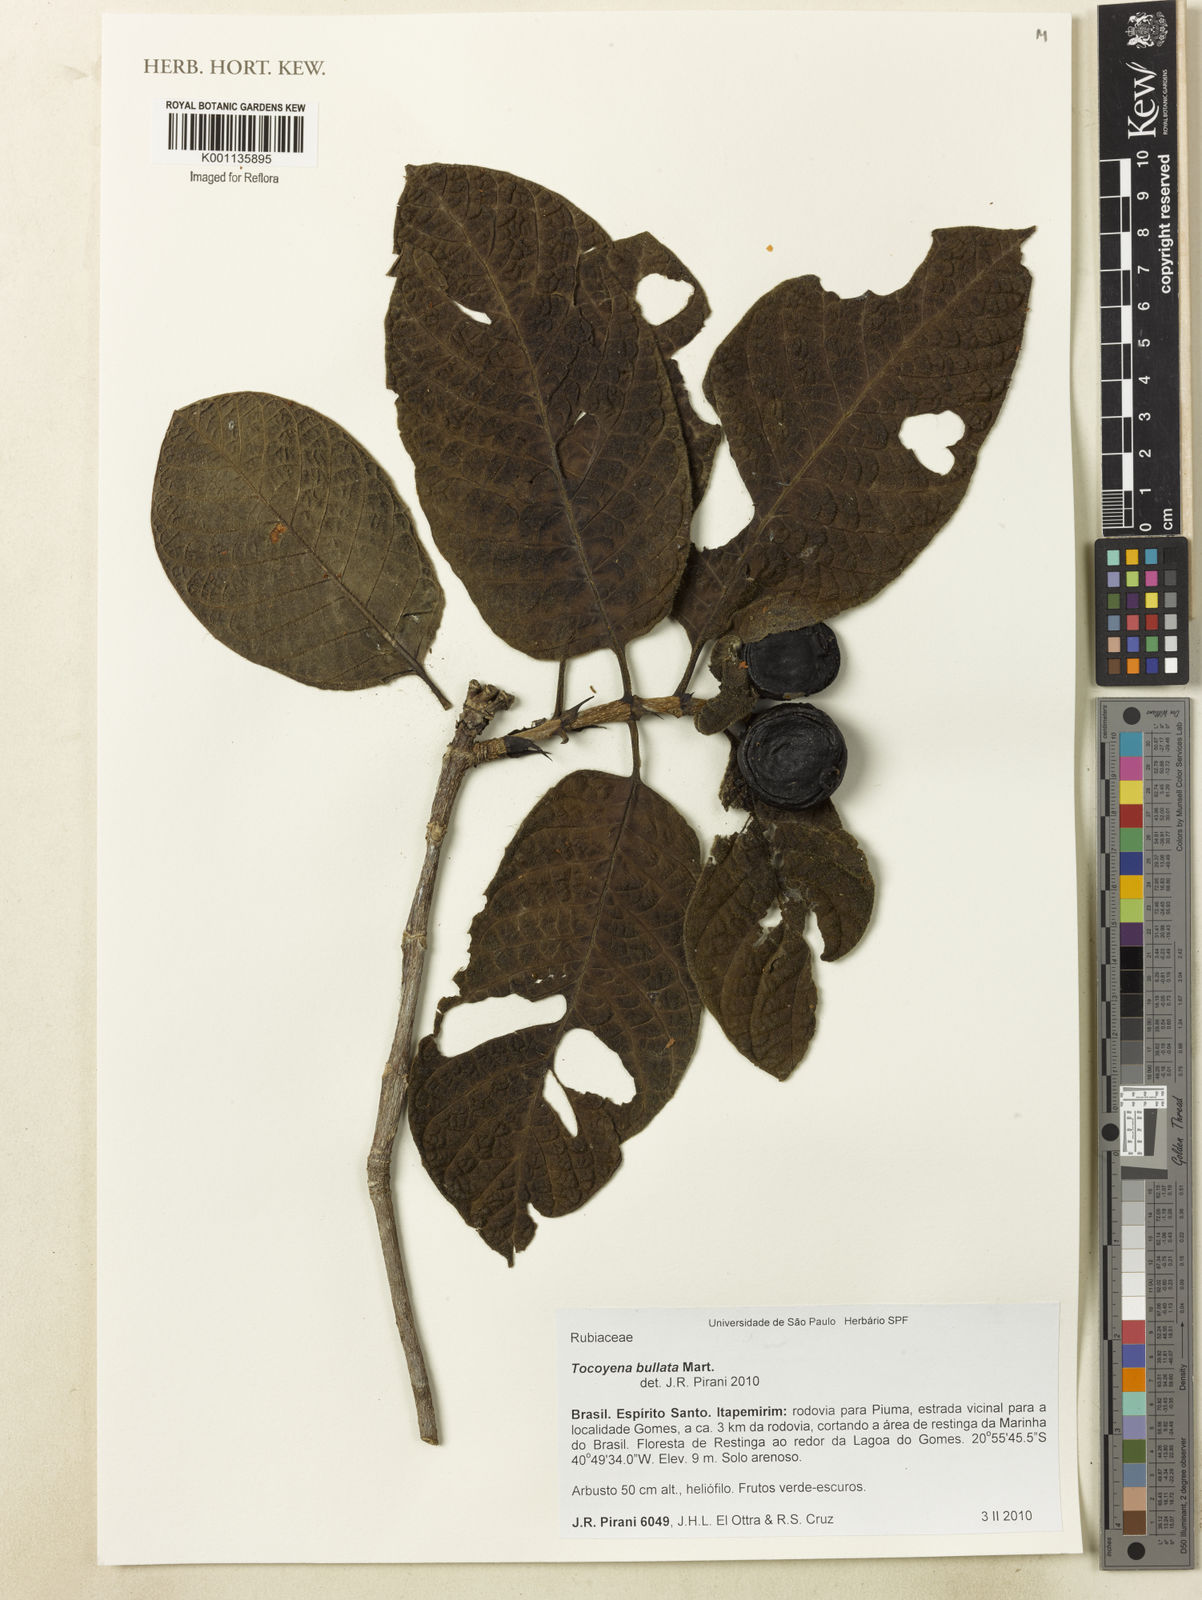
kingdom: Plantae
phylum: Tracheophyta
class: Magnoliopsida
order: Gentianales
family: Rubiaceae
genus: Tocoyena
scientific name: Tocoyena bullata
